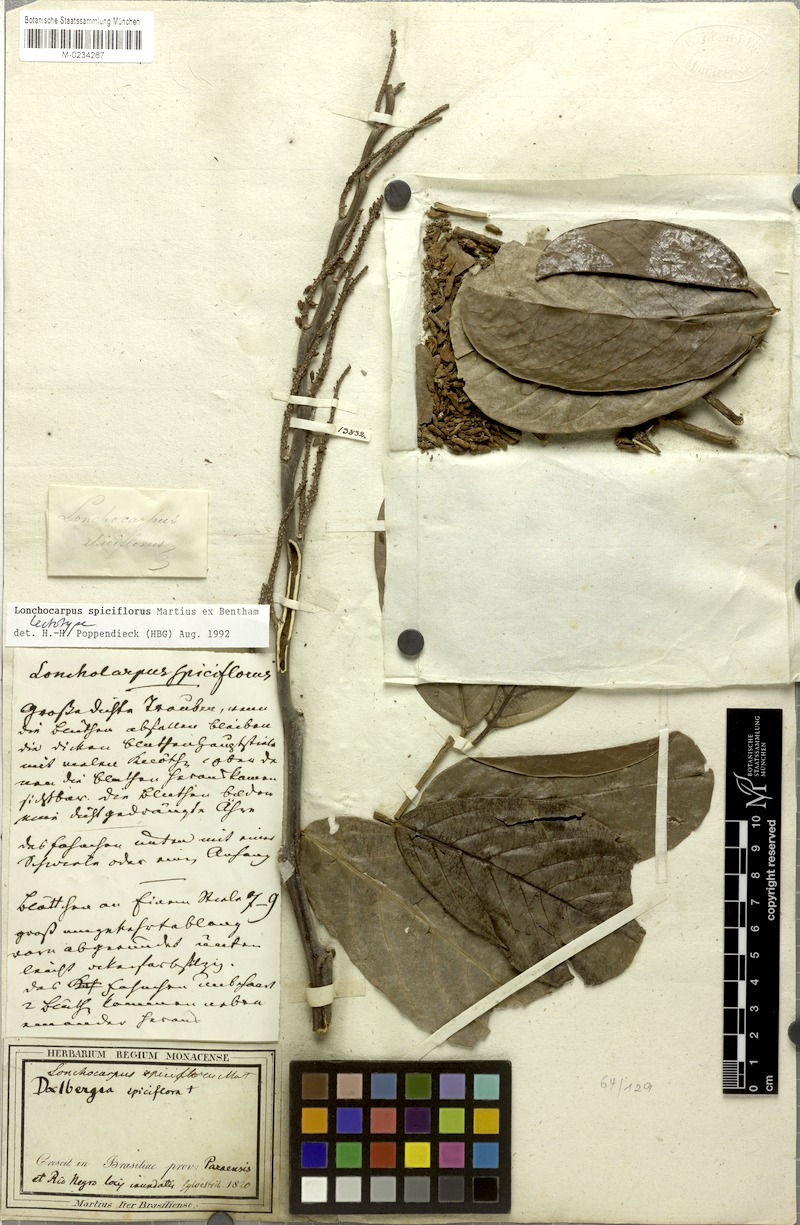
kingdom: Plantae
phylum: Tracheophyta
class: Magnoliopsida
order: Fabales
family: Fabaceae
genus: Lonchocarpus
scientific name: Lonchocarpus spiciflorus
